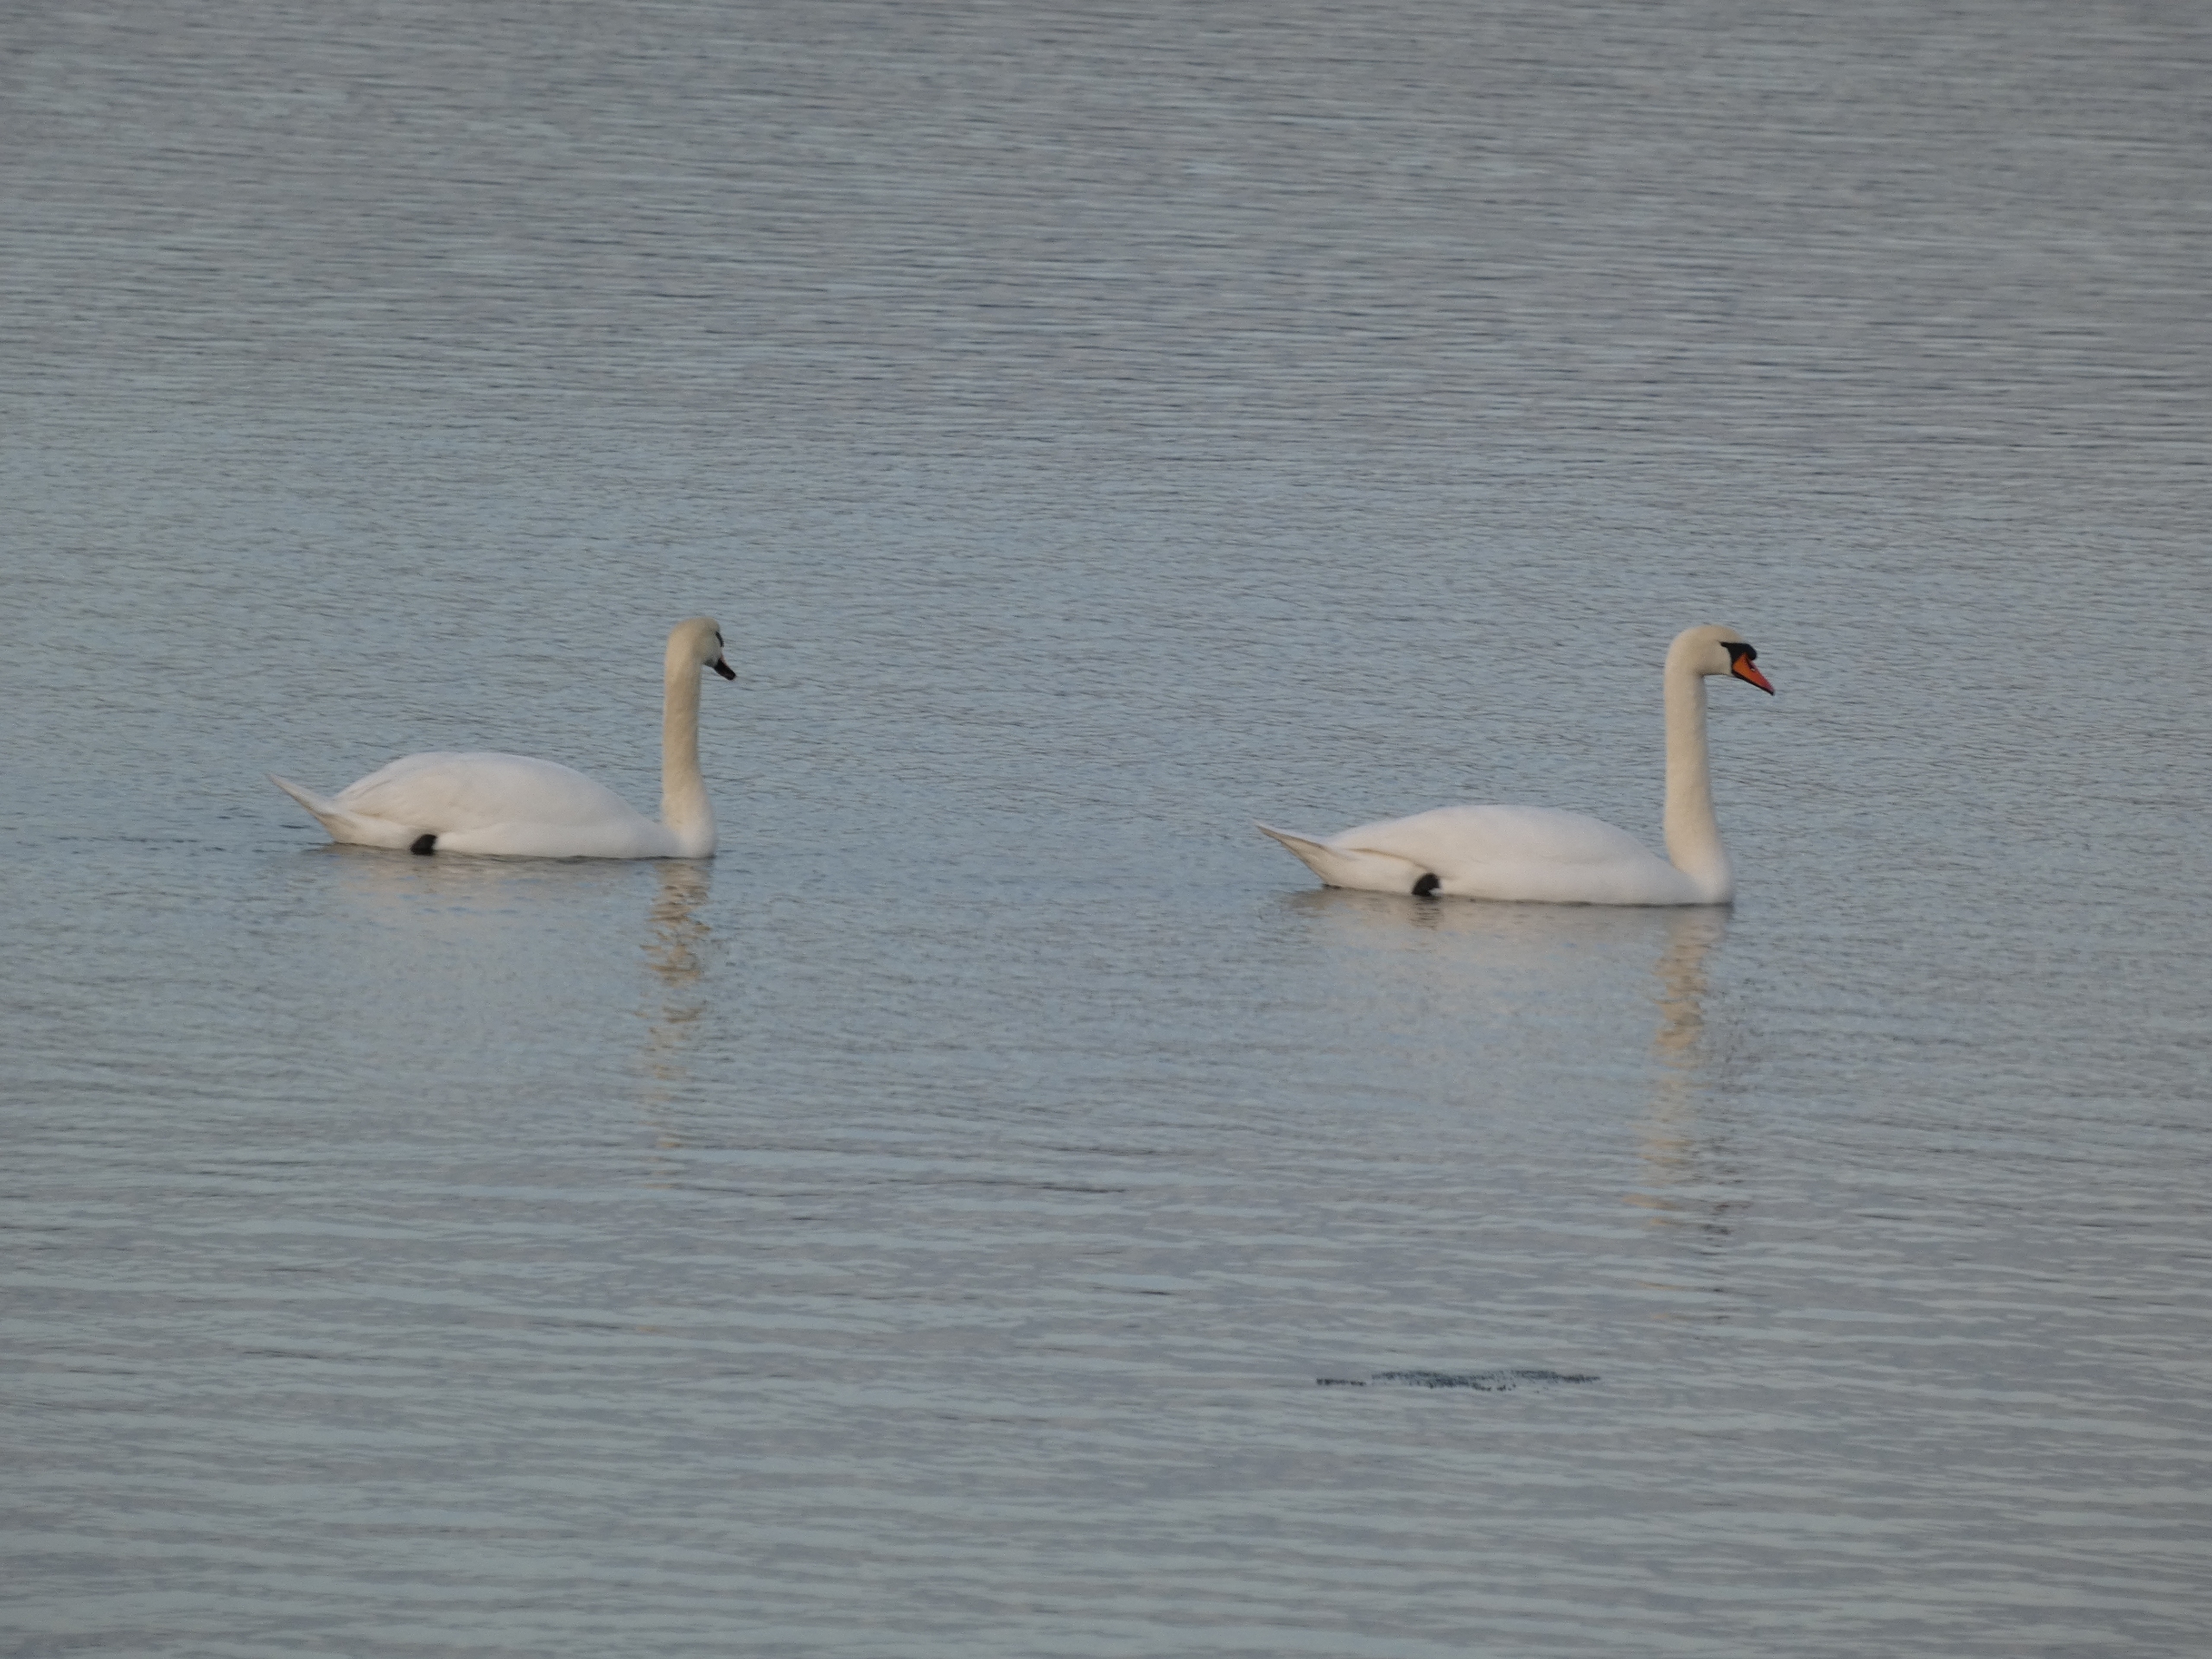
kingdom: Animalia
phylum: Chordata
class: Aves
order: Anseriformes
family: Anatidae
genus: Cygnus
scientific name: Cygnus olor
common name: Knopsvane
